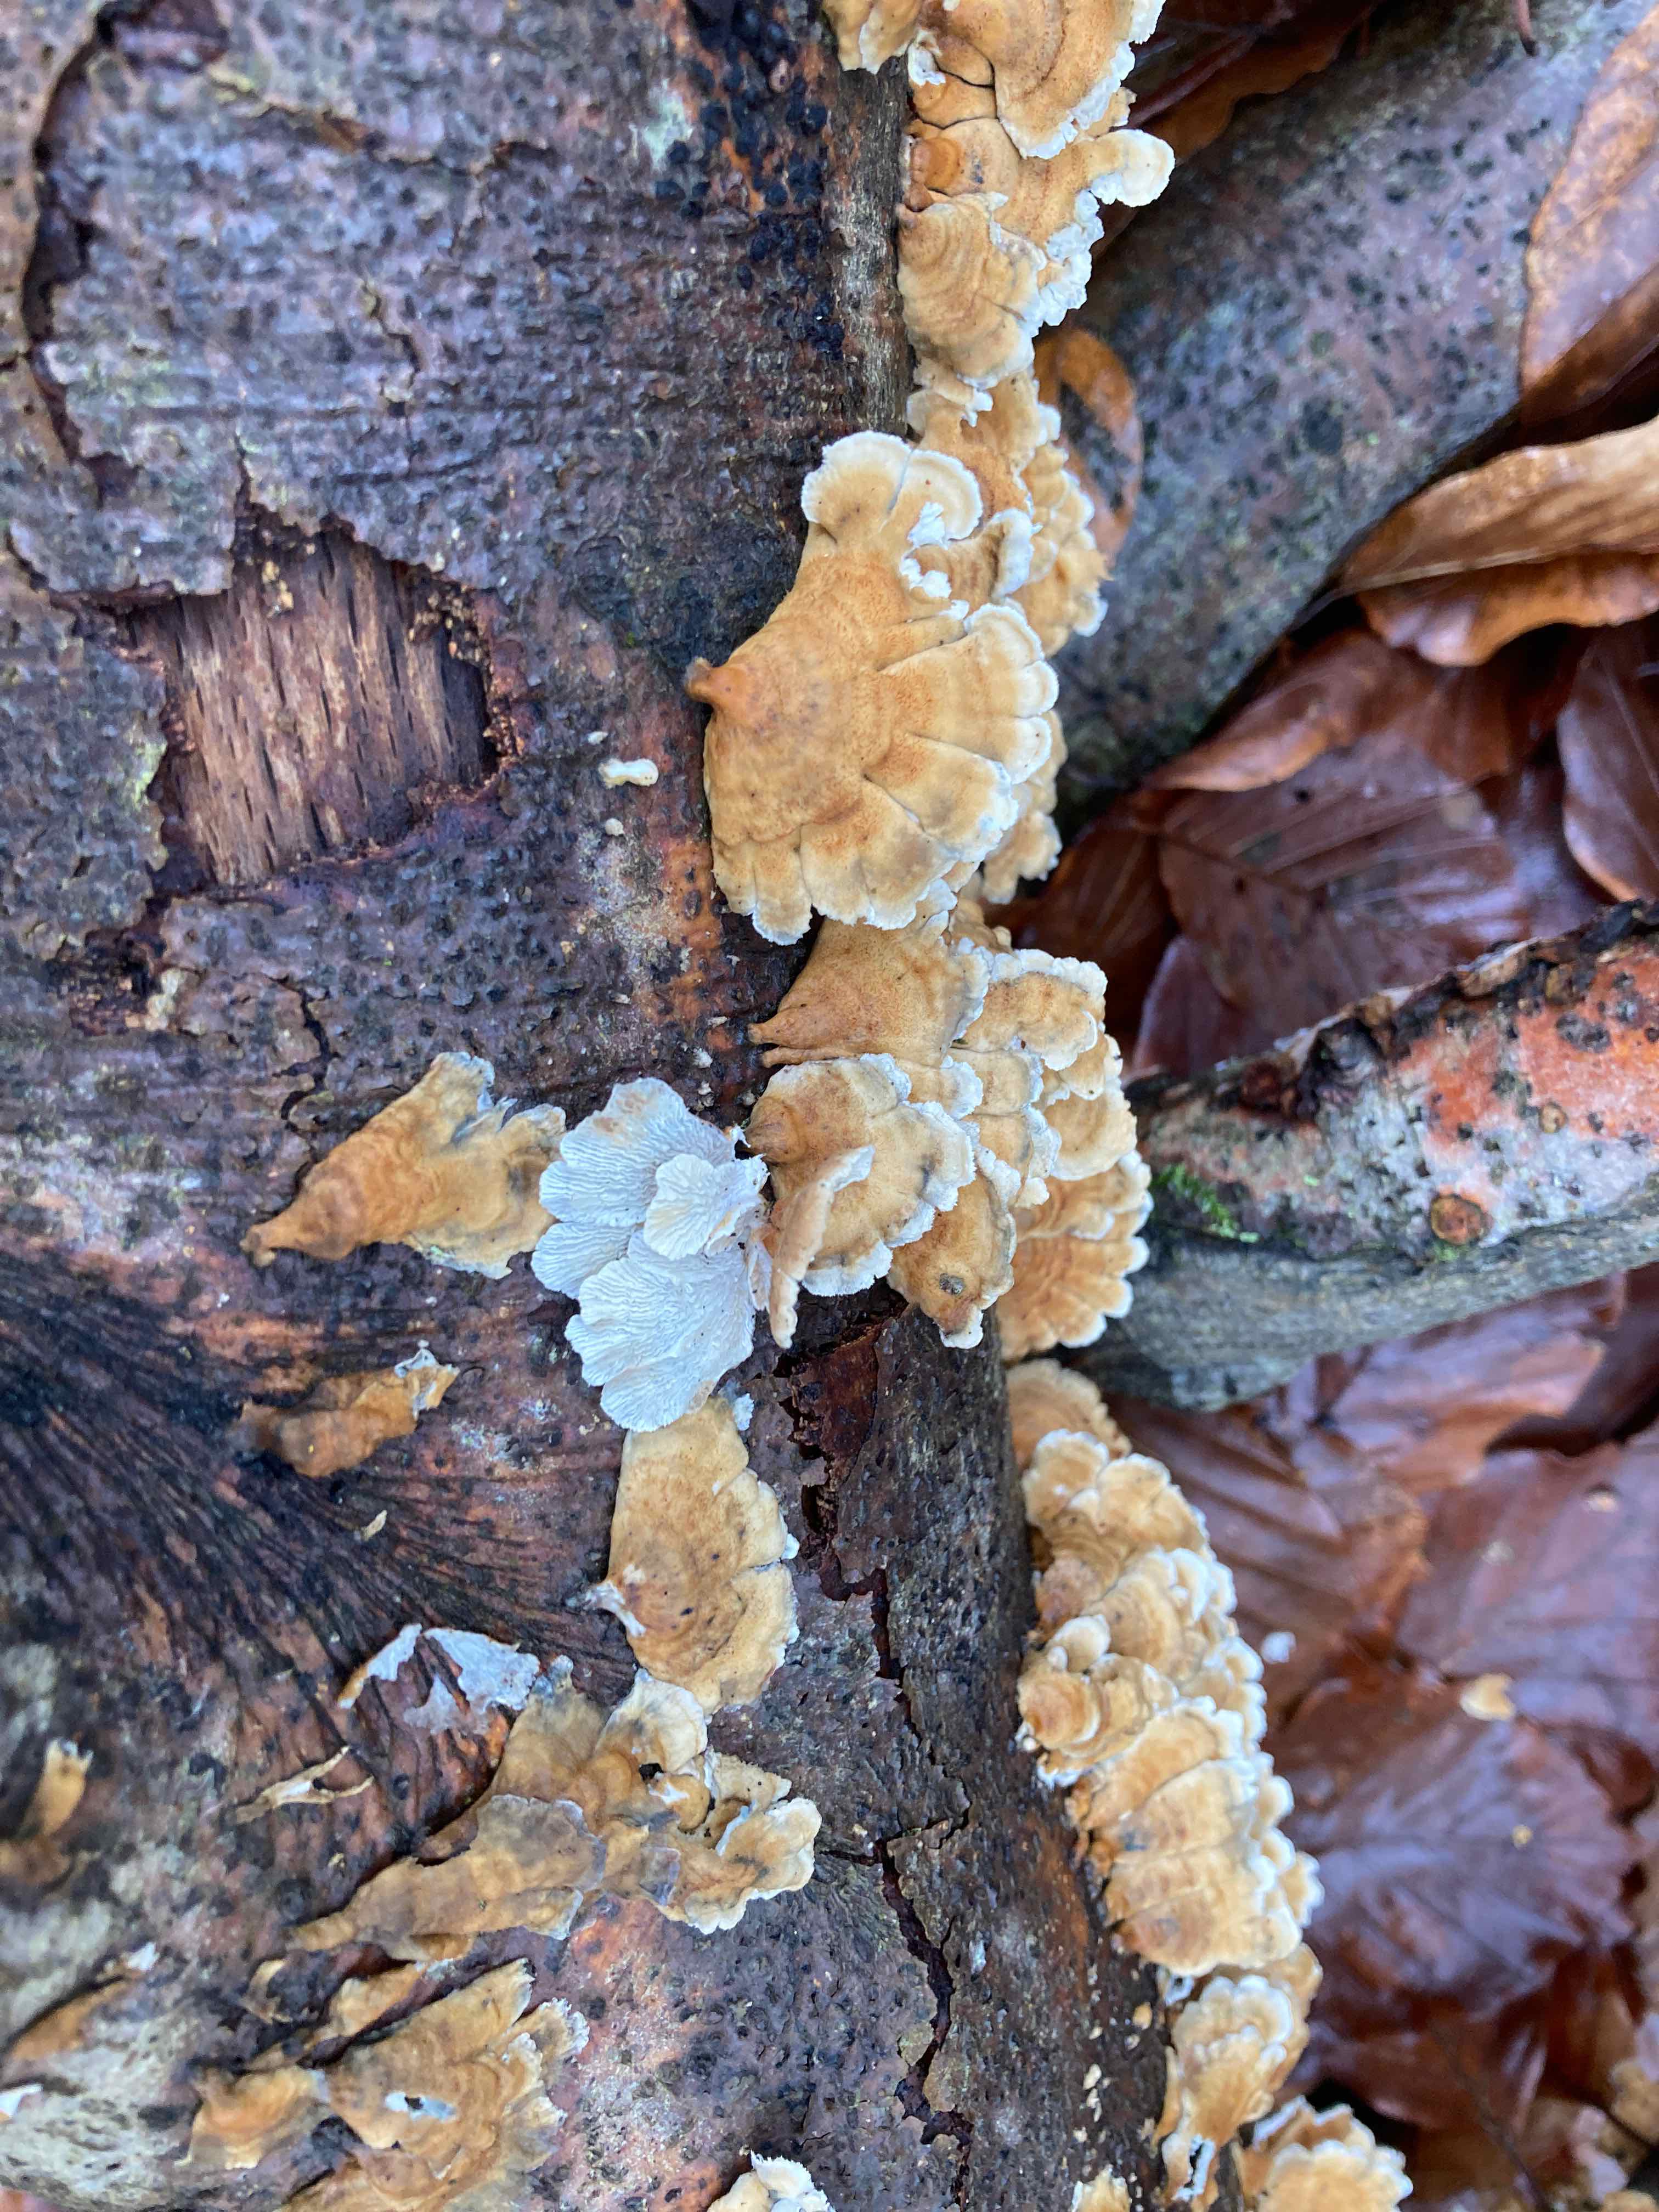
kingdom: Fungi
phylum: Basidiomycota
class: Agaricomycetes
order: Amylocorticiales
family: Amylocorticiaceae
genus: Plicaturopsis
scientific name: Plicaturopsis crispa
